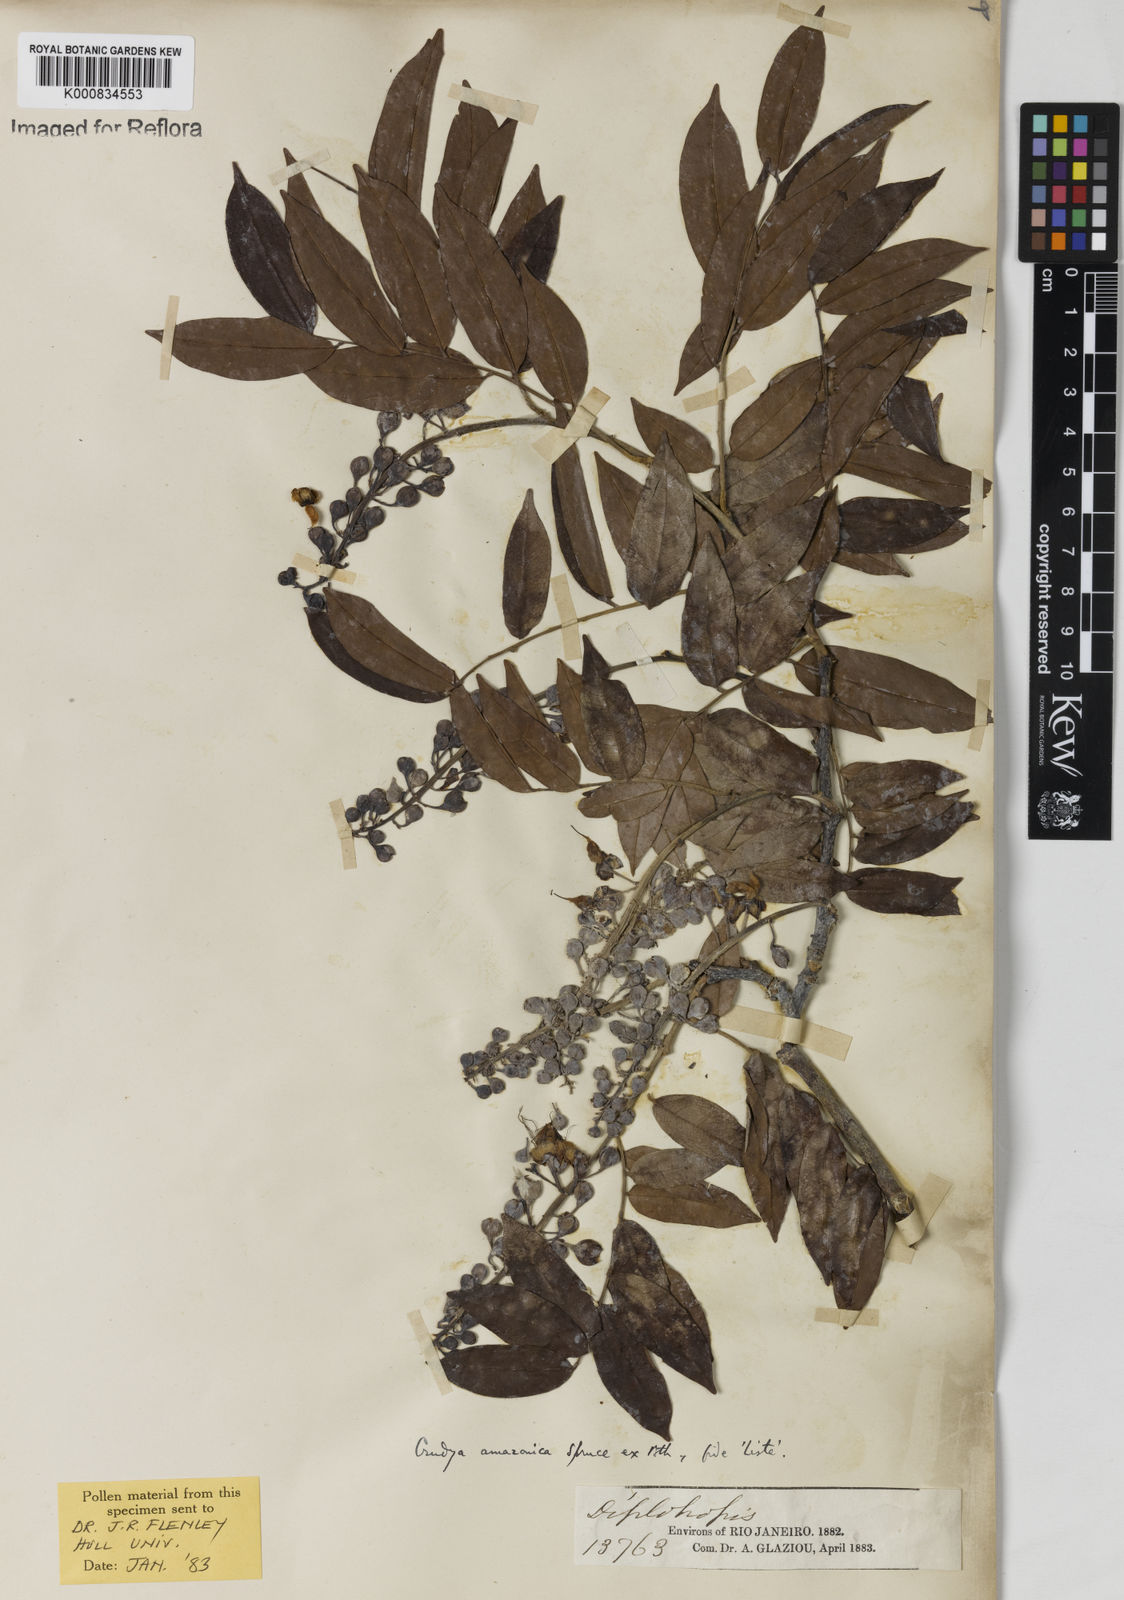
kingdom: Plantae
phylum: Tracheophyta
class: Magnoliopsida
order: Fabales
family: Fabaceae
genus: Crudia
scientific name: Crudia
